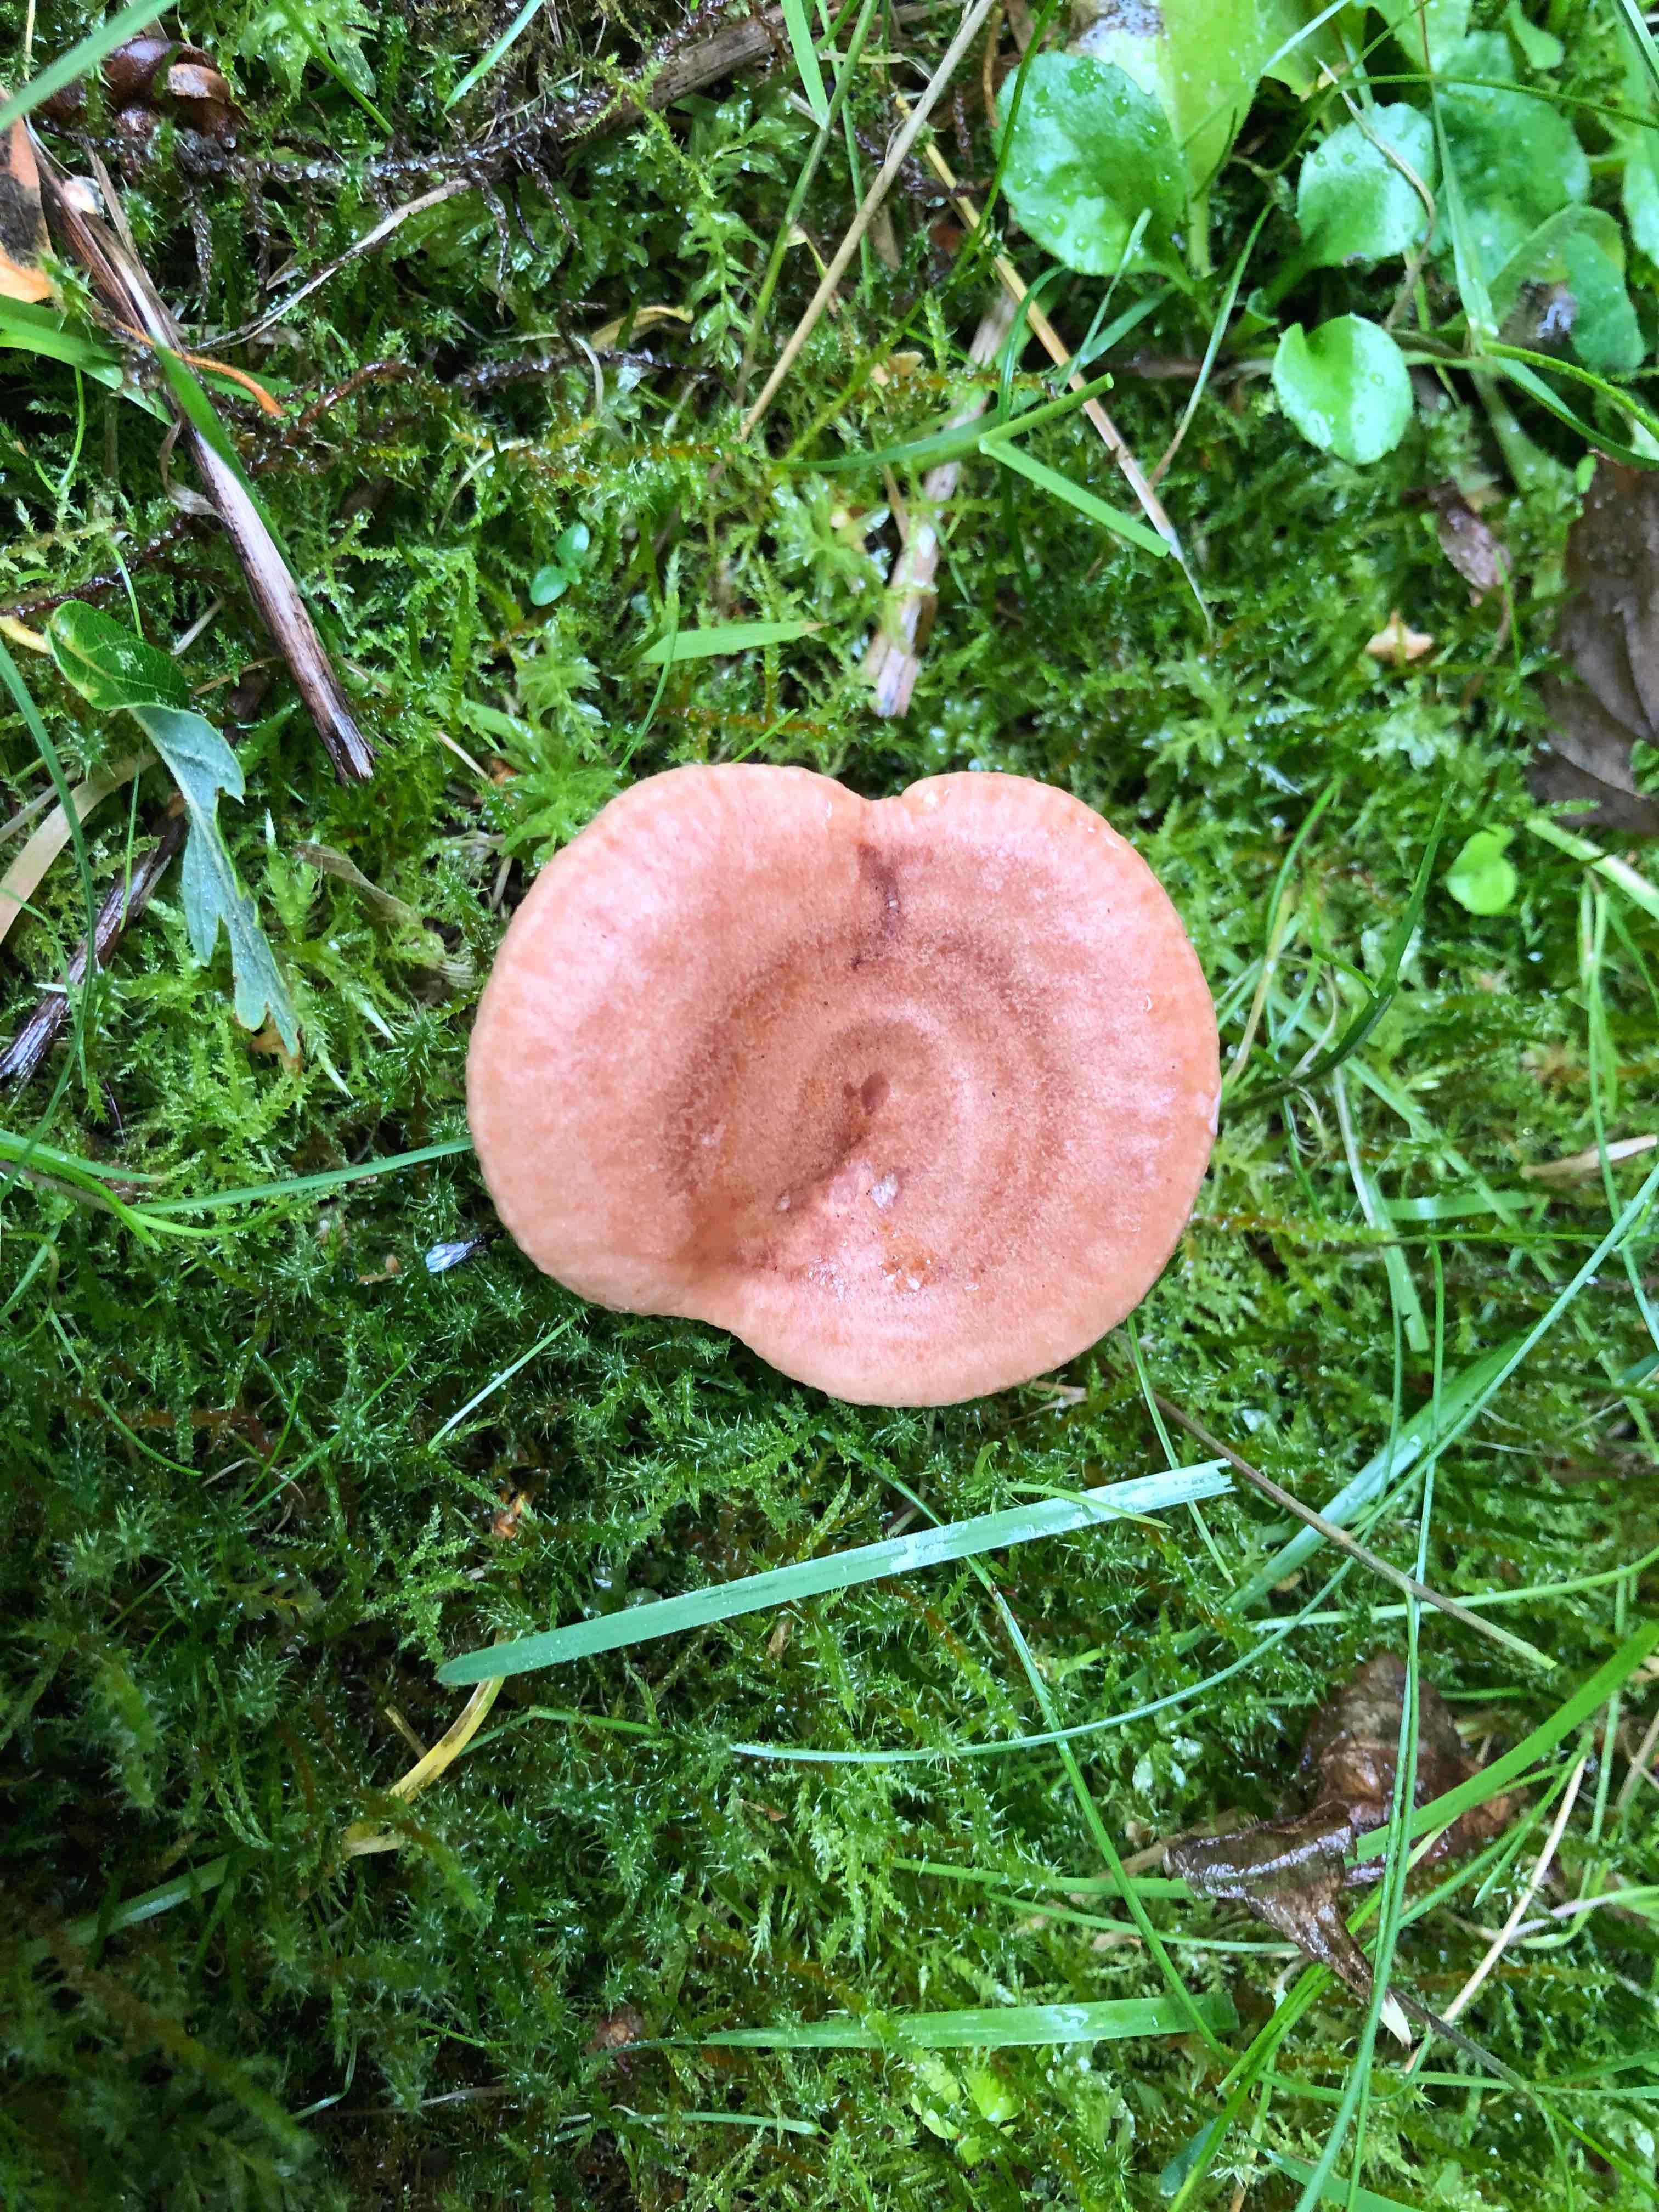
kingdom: Fungi
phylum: Basidiomycota
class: Agaricomycetes
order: Russulales
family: Russulaceae
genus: Lactarius
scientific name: Lactarius quietus
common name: ege-mælkehat
